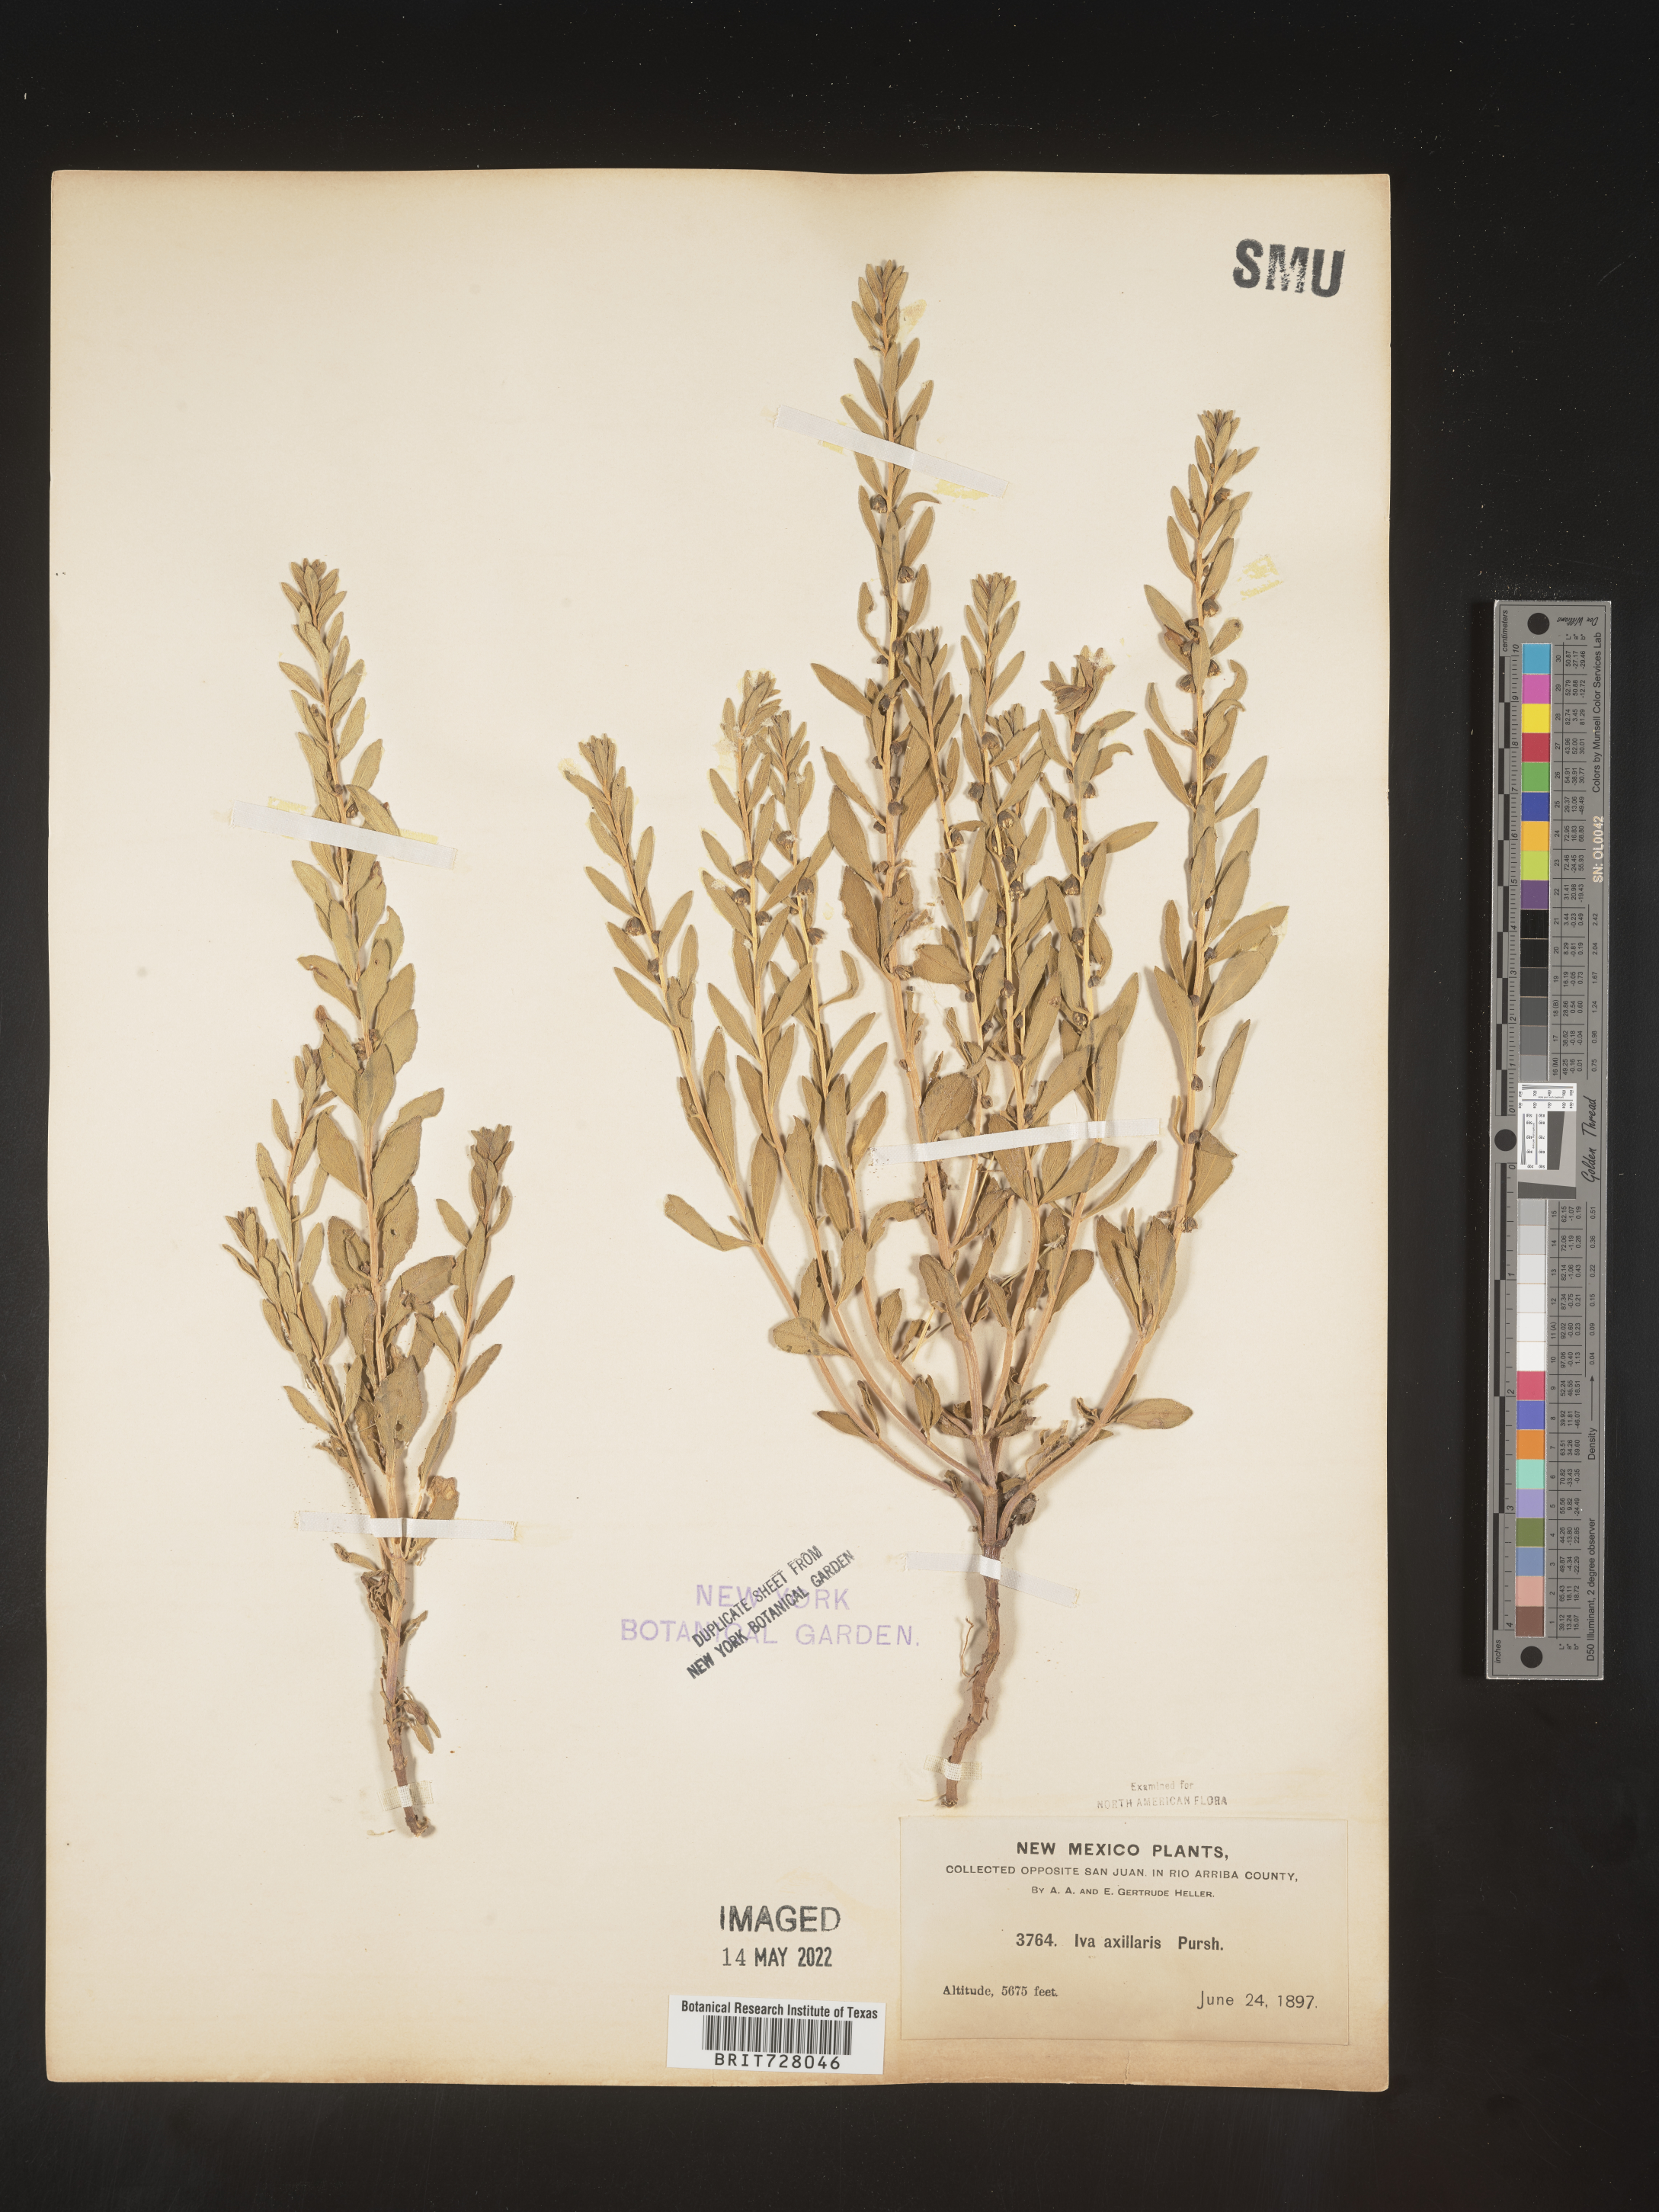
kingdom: Plantae
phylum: Tracheophyta
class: Magnoliopsida
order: Asterales
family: Asteraceae
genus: Iva
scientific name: Iva axillaris
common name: Poverty sumpweed
